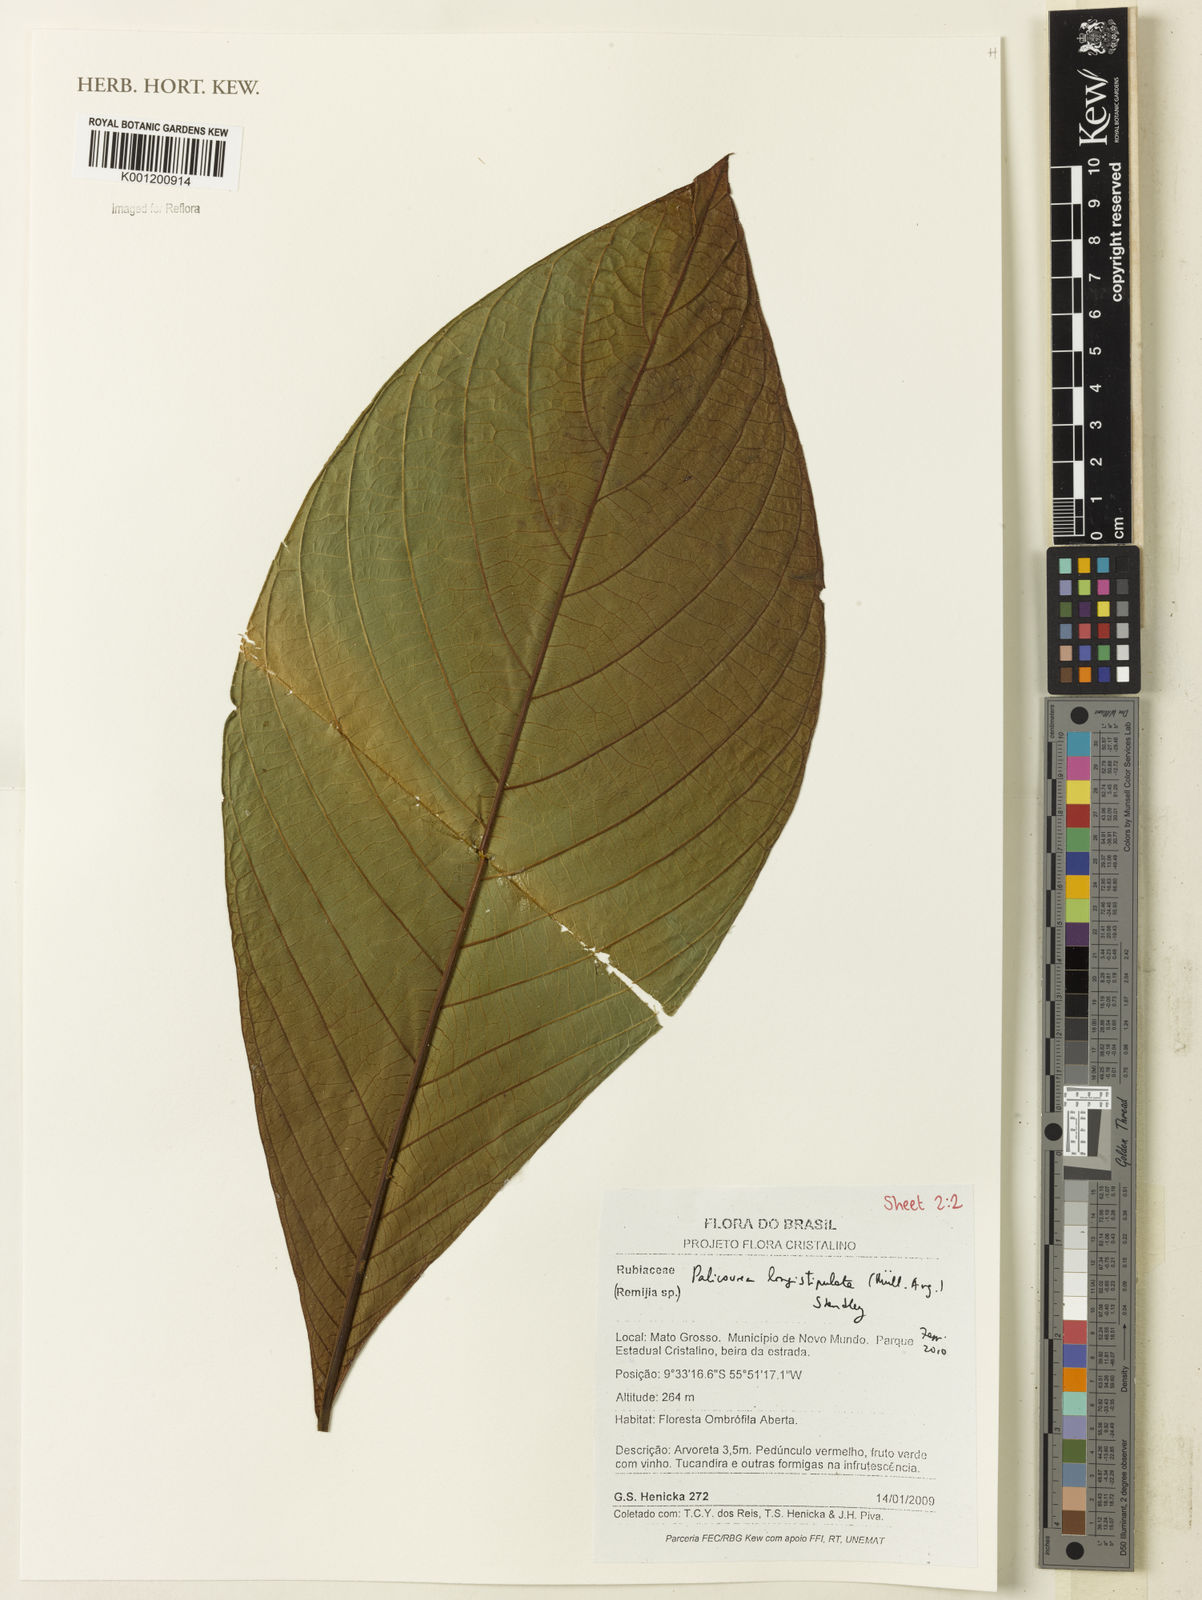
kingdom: Plantae
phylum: Tracheophyta
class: Magnoliopsida
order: Gentianales
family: Rubiaceae
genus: Palicourea
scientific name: Palicourea longistipulata
